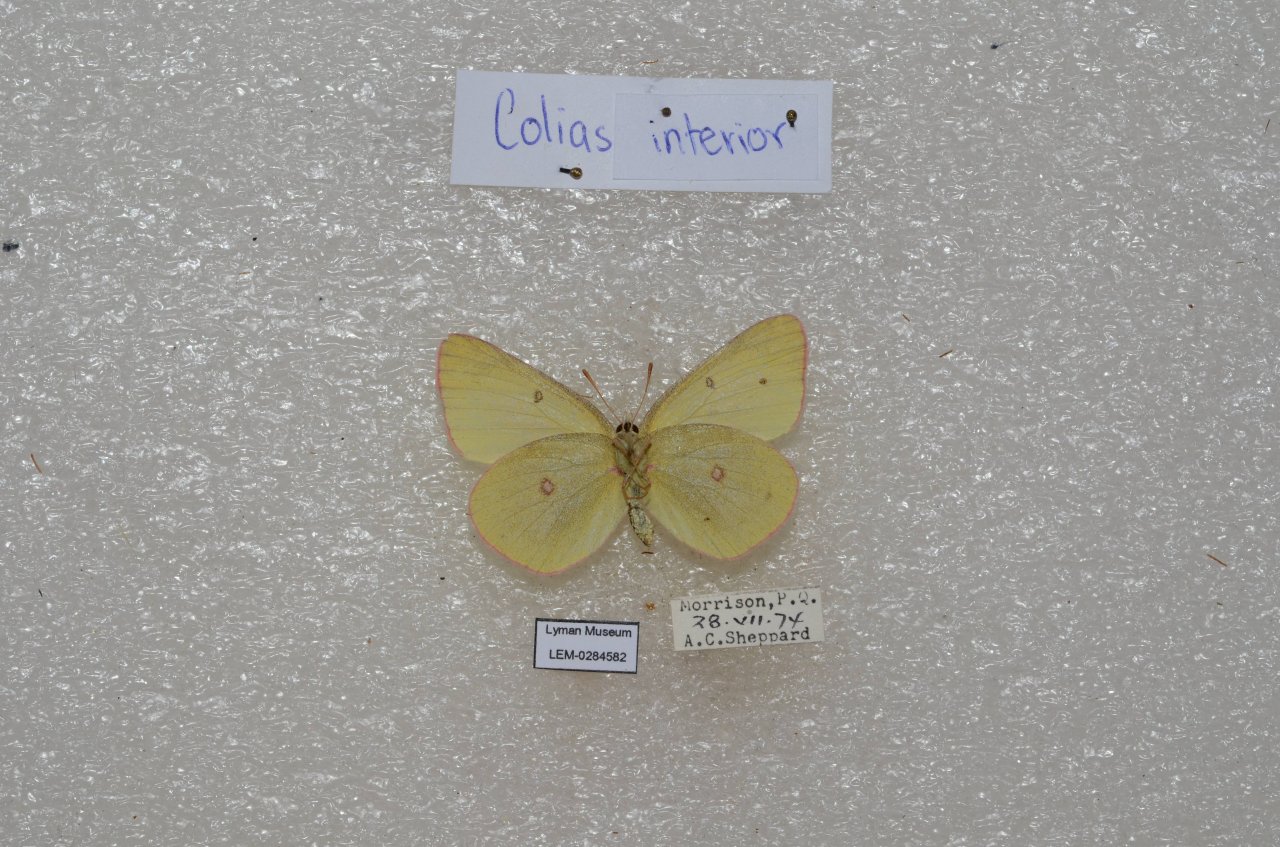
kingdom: Animalia
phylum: Arthropoda
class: Insecta
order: Lepidoptera
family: Pieridae
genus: Colias
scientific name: Colias interior
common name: Pink-edged Sulphur
